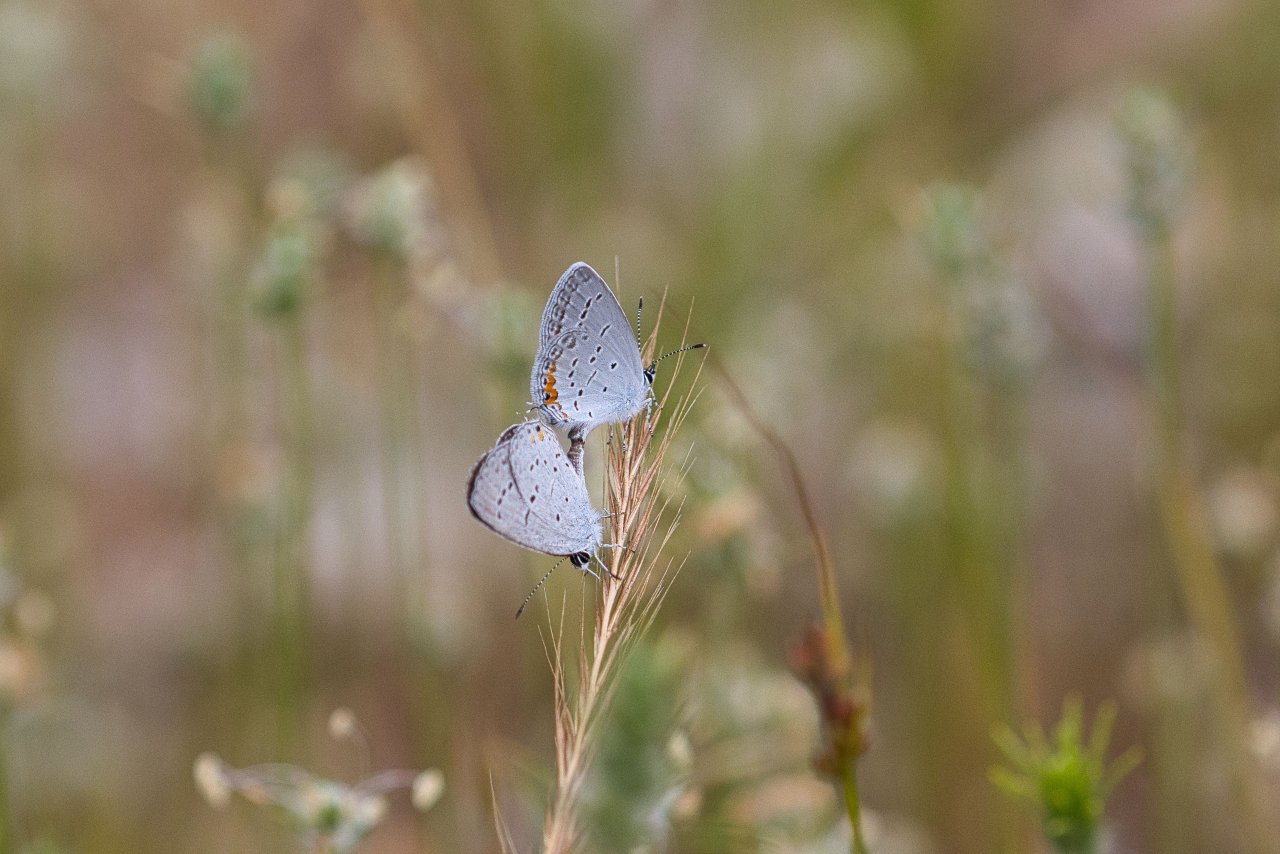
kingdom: Animalia
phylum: Arthropoda
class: Insecta
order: Lepidoptera
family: Lycaenidae
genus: Elkalyce
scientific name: Elkalyce comyntas
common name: Eastern Tailed-Blue
